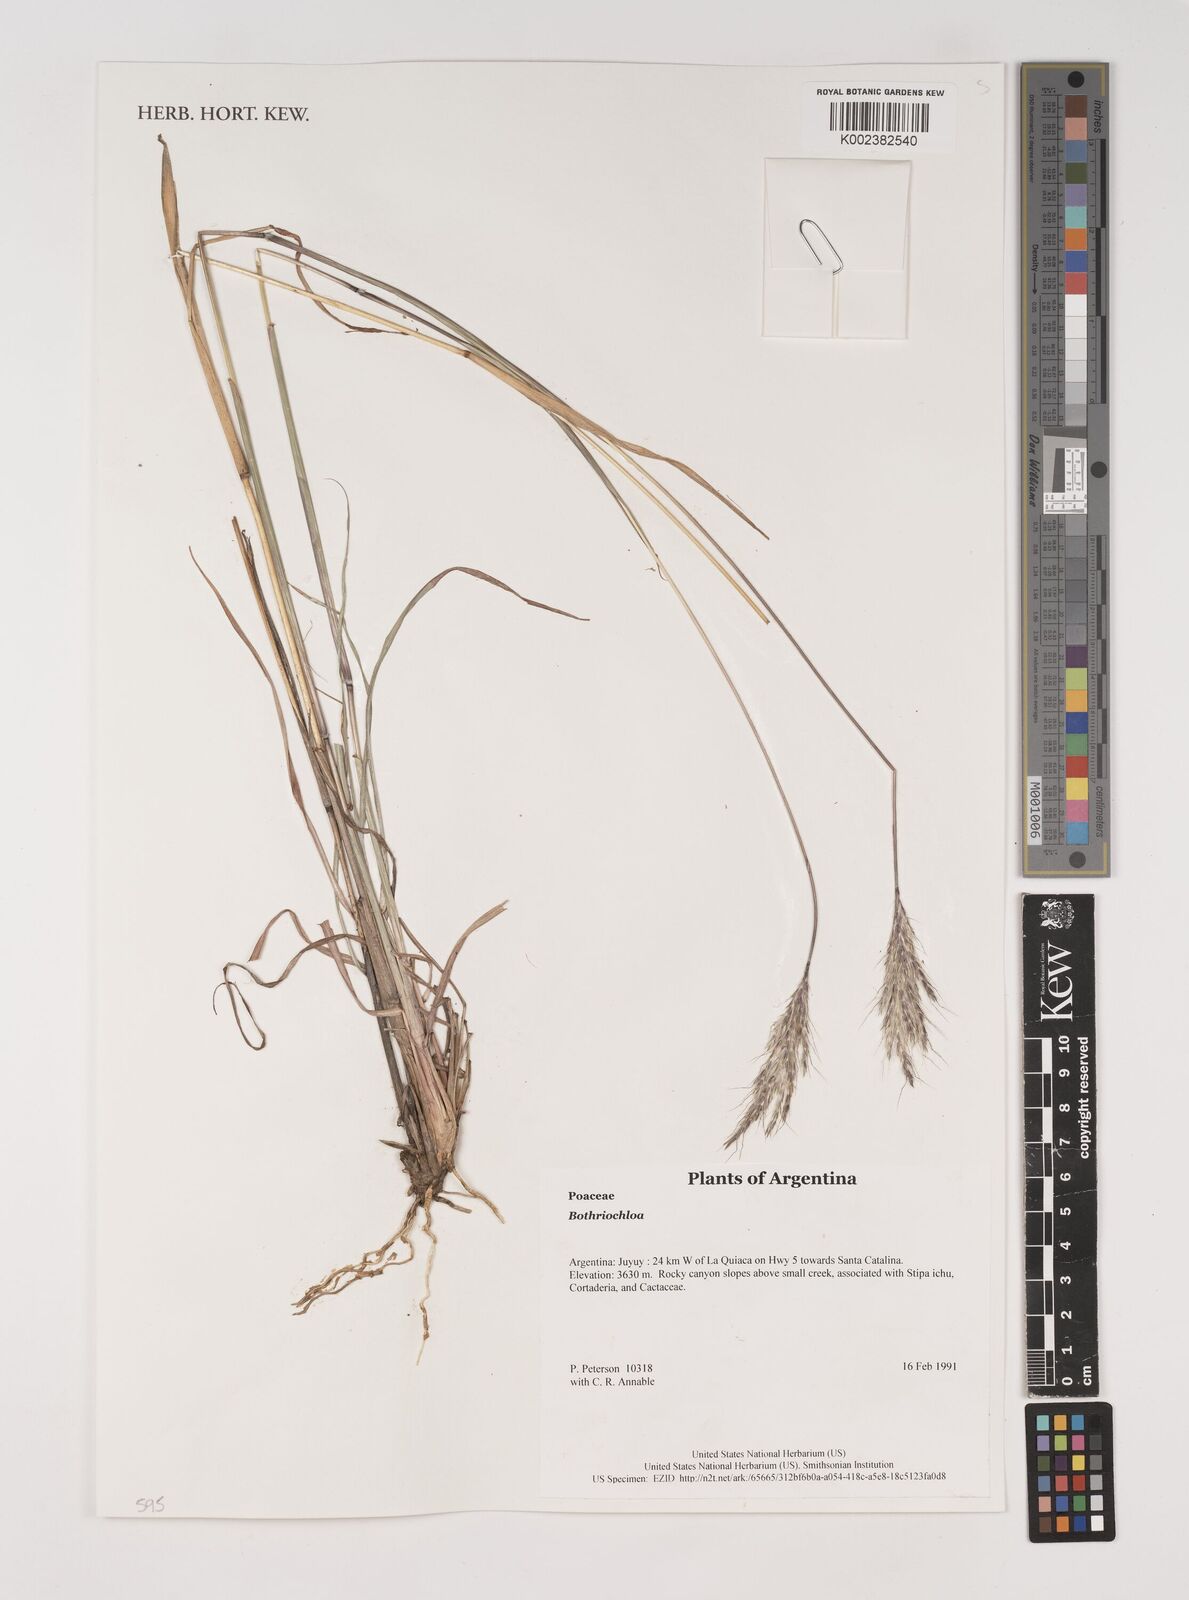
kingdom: Plantae
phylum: Tracheophyta
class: Liliopsida
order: Poales
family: Poaceae
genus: Bothriochloa
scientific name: Bothriochloa
